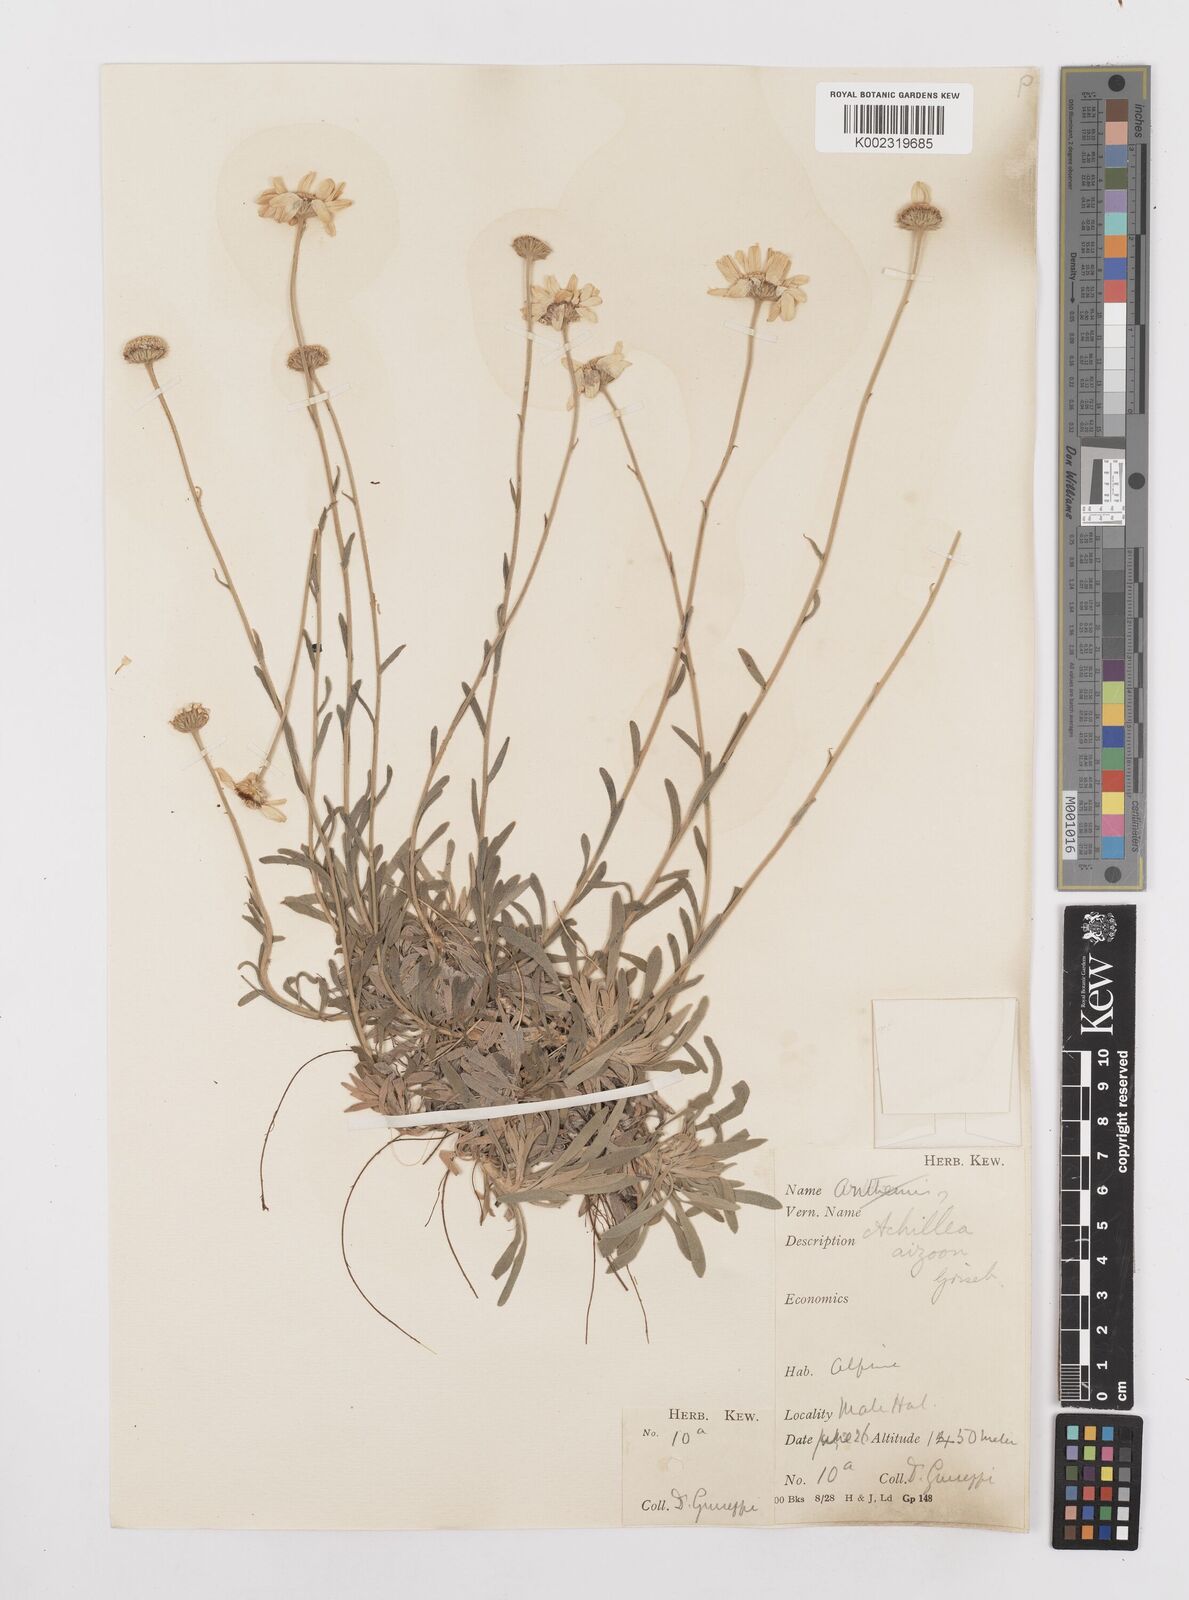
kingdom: Plantae
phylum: Tracheophyta
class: Magnoliopsida
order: Asterales
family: Asteraceae
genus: Achillea
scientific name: Achillea ageratifolia
